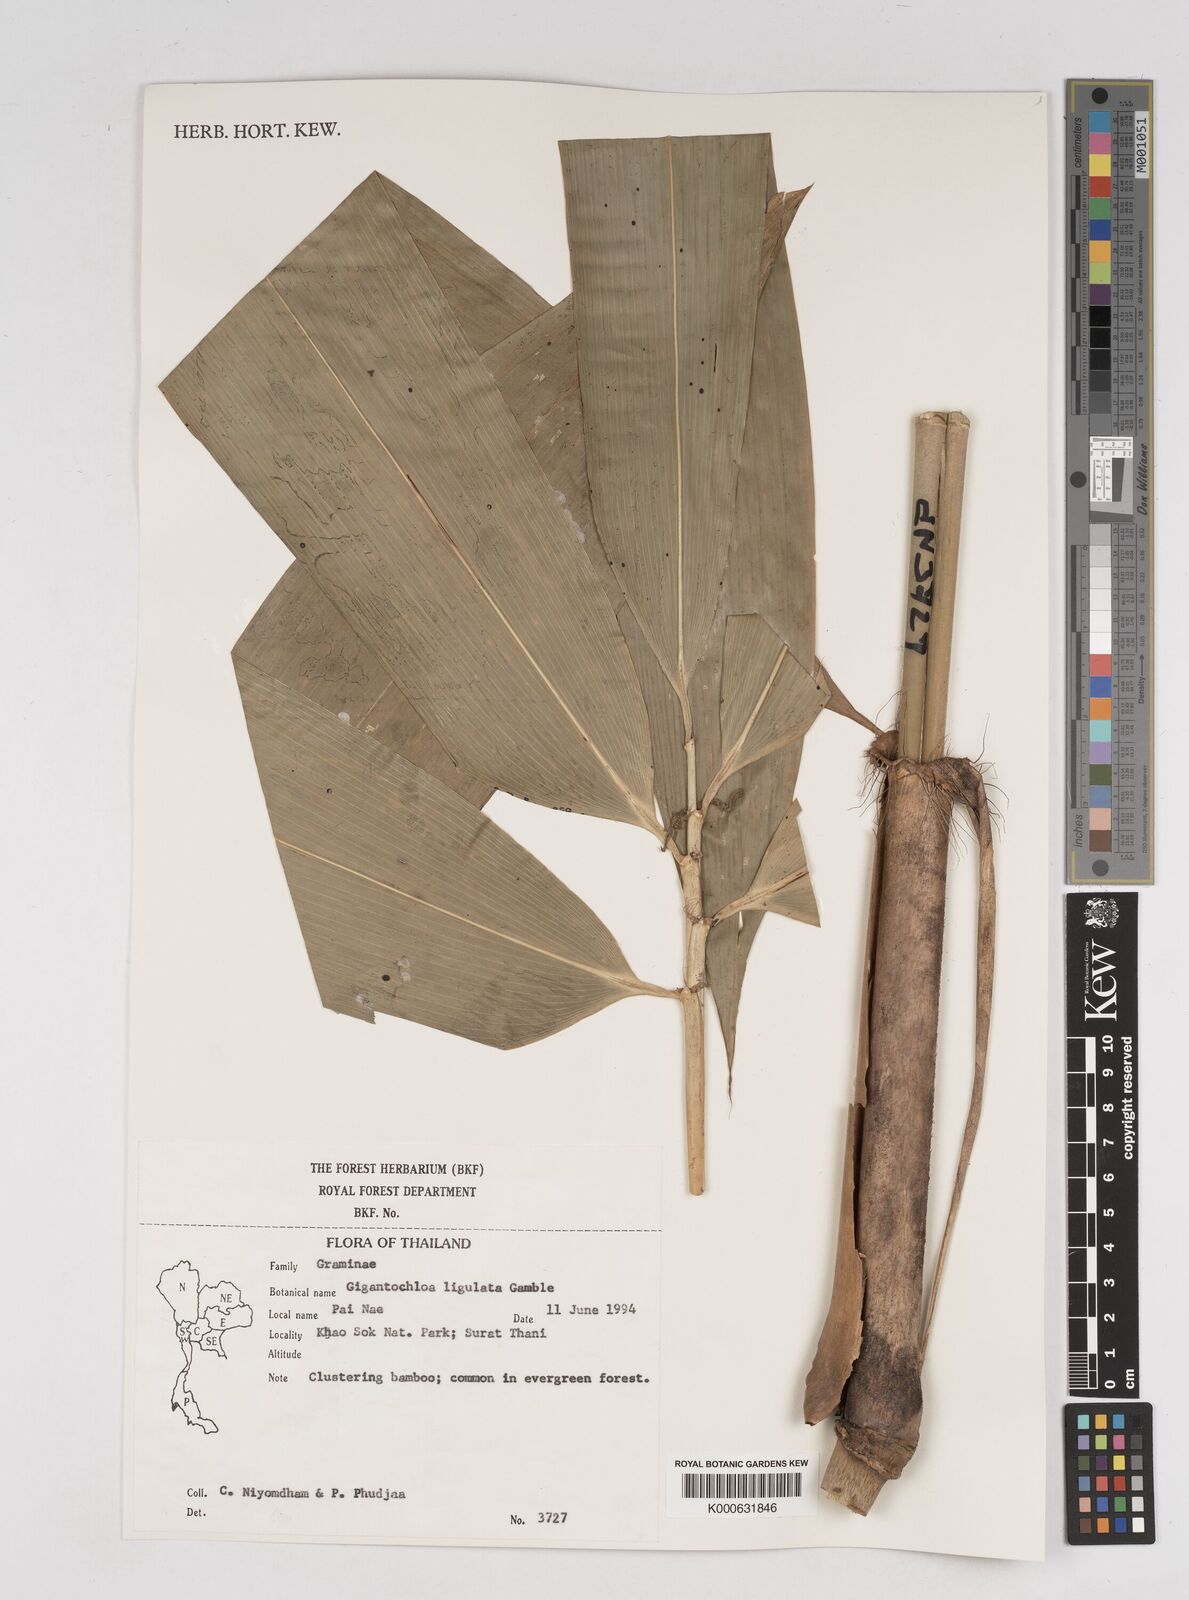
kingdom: Plantae
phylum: Tracheophyta
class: Liliopsida
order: Poales
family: Poaceae
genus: Gigantochloa
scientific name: Gigantochloa
